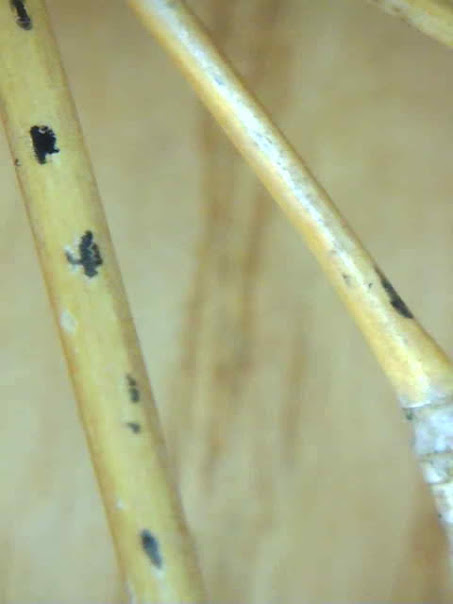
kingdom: Fungi
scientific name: Fungi
